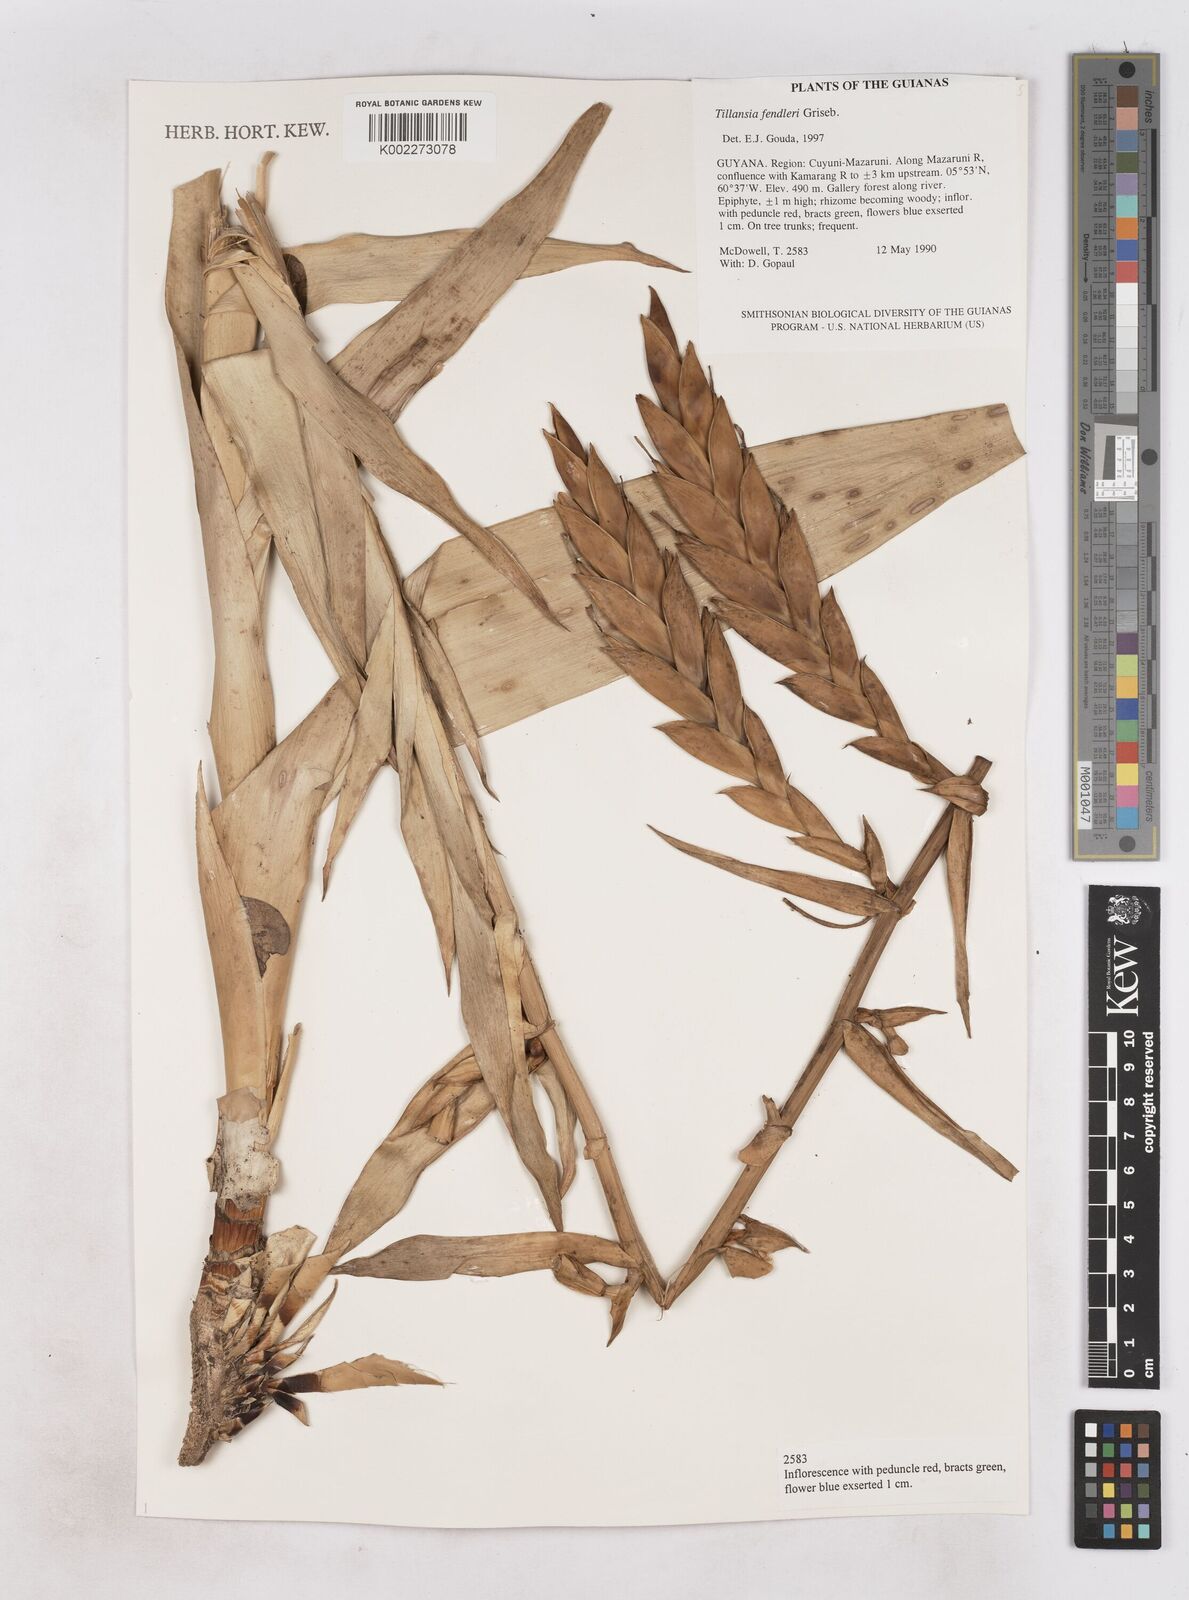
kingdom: Plantae
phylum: Tracheophyta
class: Liliopsida
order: Poales
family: Bromeliaceae
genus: Tillandsia
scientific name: Tillandsia fendleri
